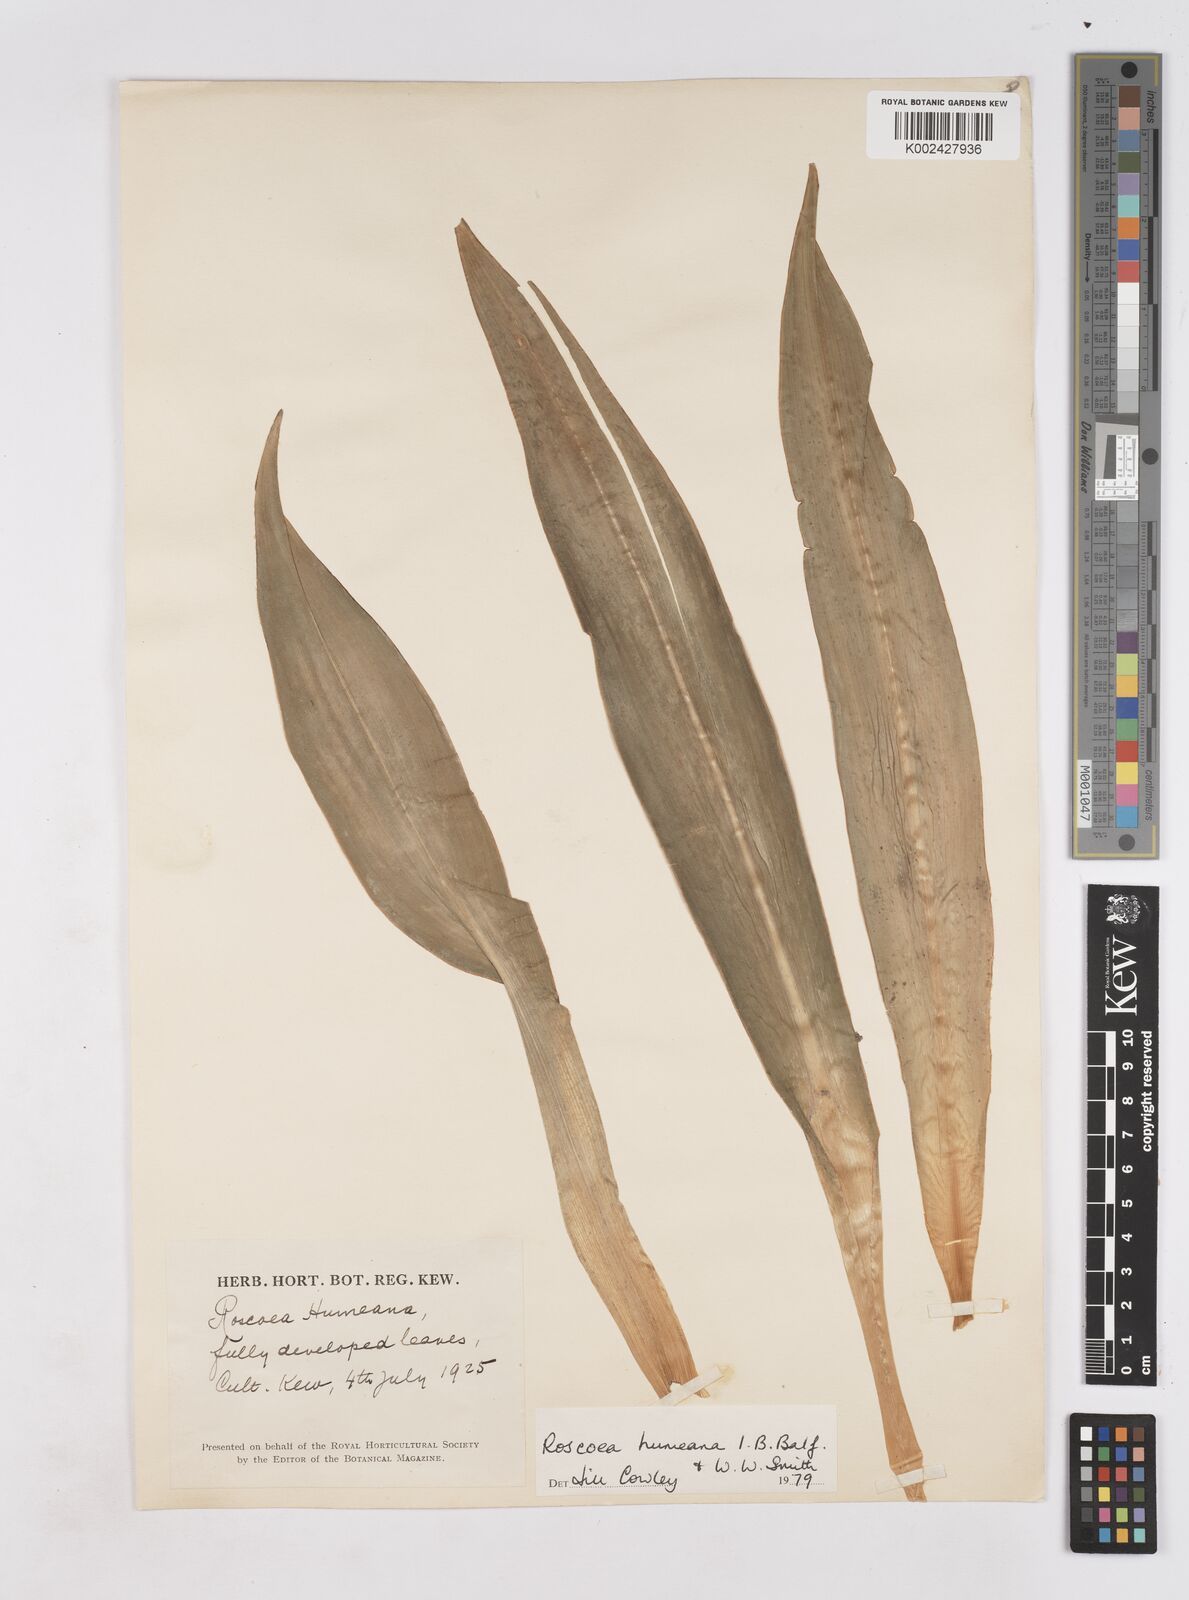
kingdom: Plantae
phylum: Tracheophyta
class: Liliopsida
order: Zingiberales
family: Zingiberaceae
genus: Roscoea
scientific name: Roscoea humeana
